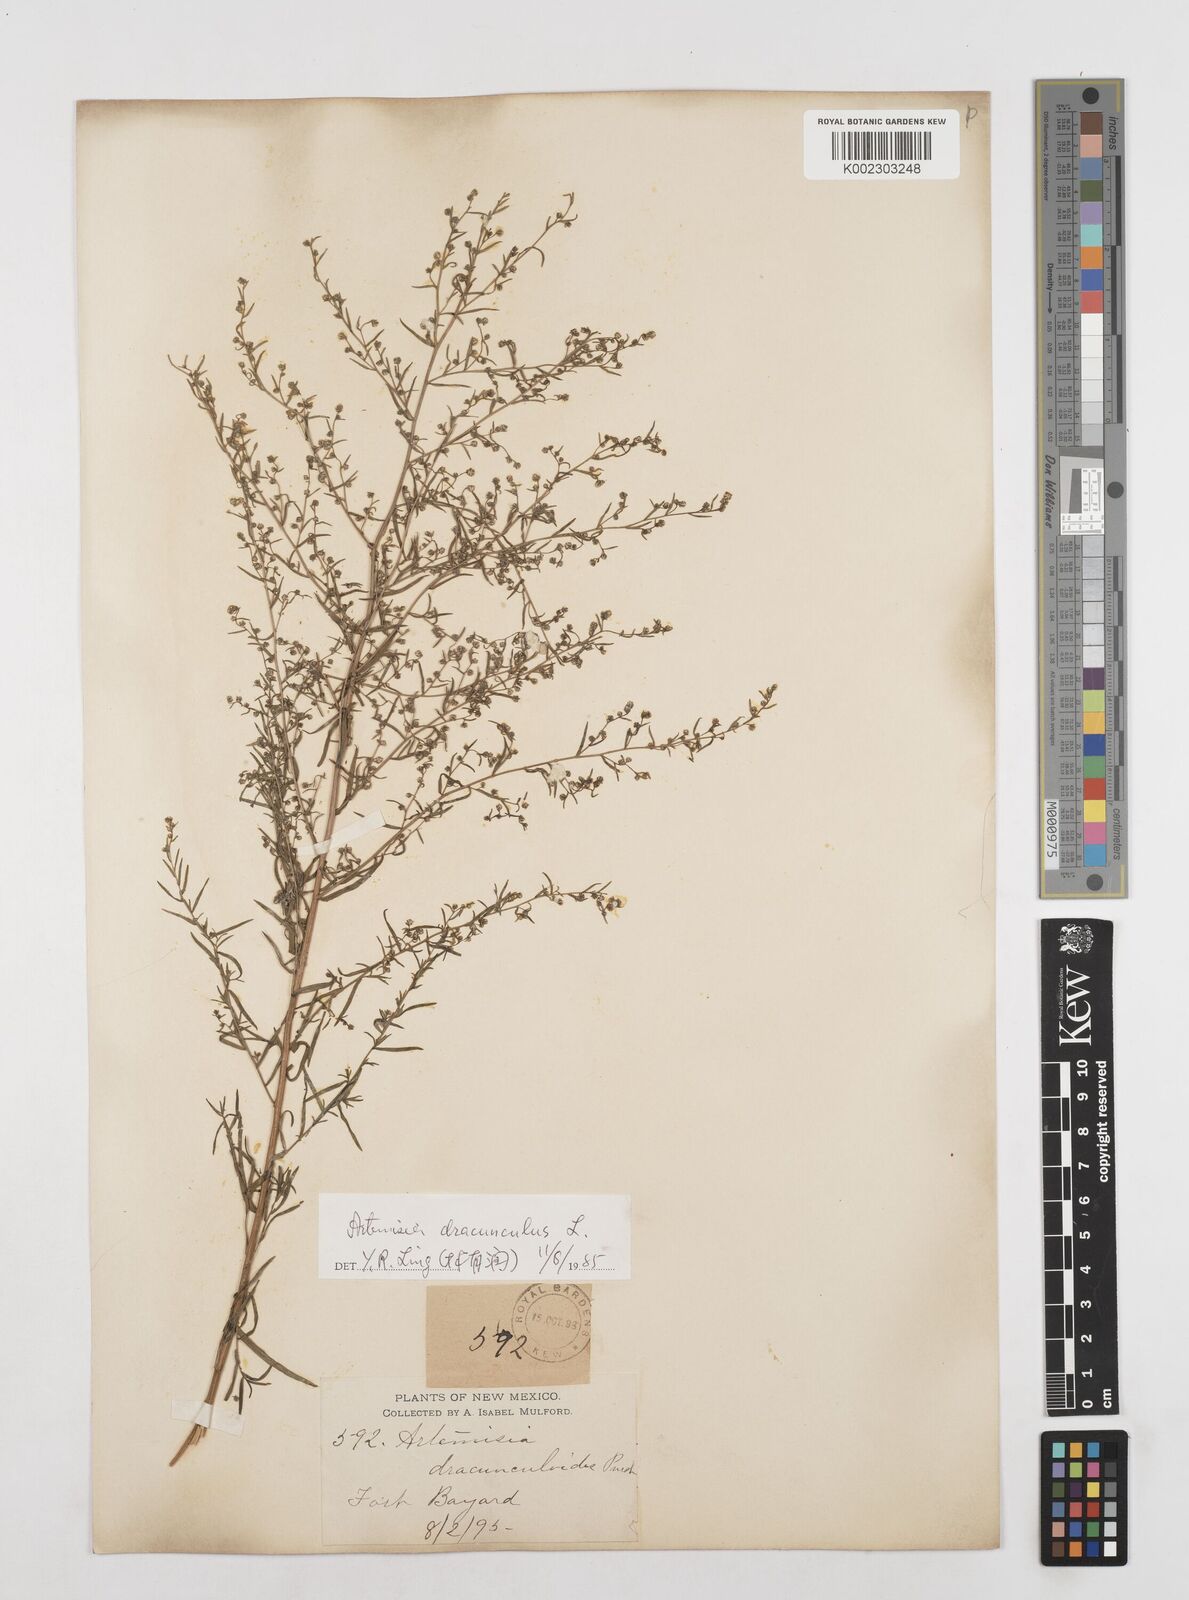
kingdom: Plantae
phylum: Tracheophyta
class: Magnoliopsida
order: Asterales
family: Asteraceae
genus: Artemisia
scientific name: Artemisia dracunculus
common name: Tarragon
